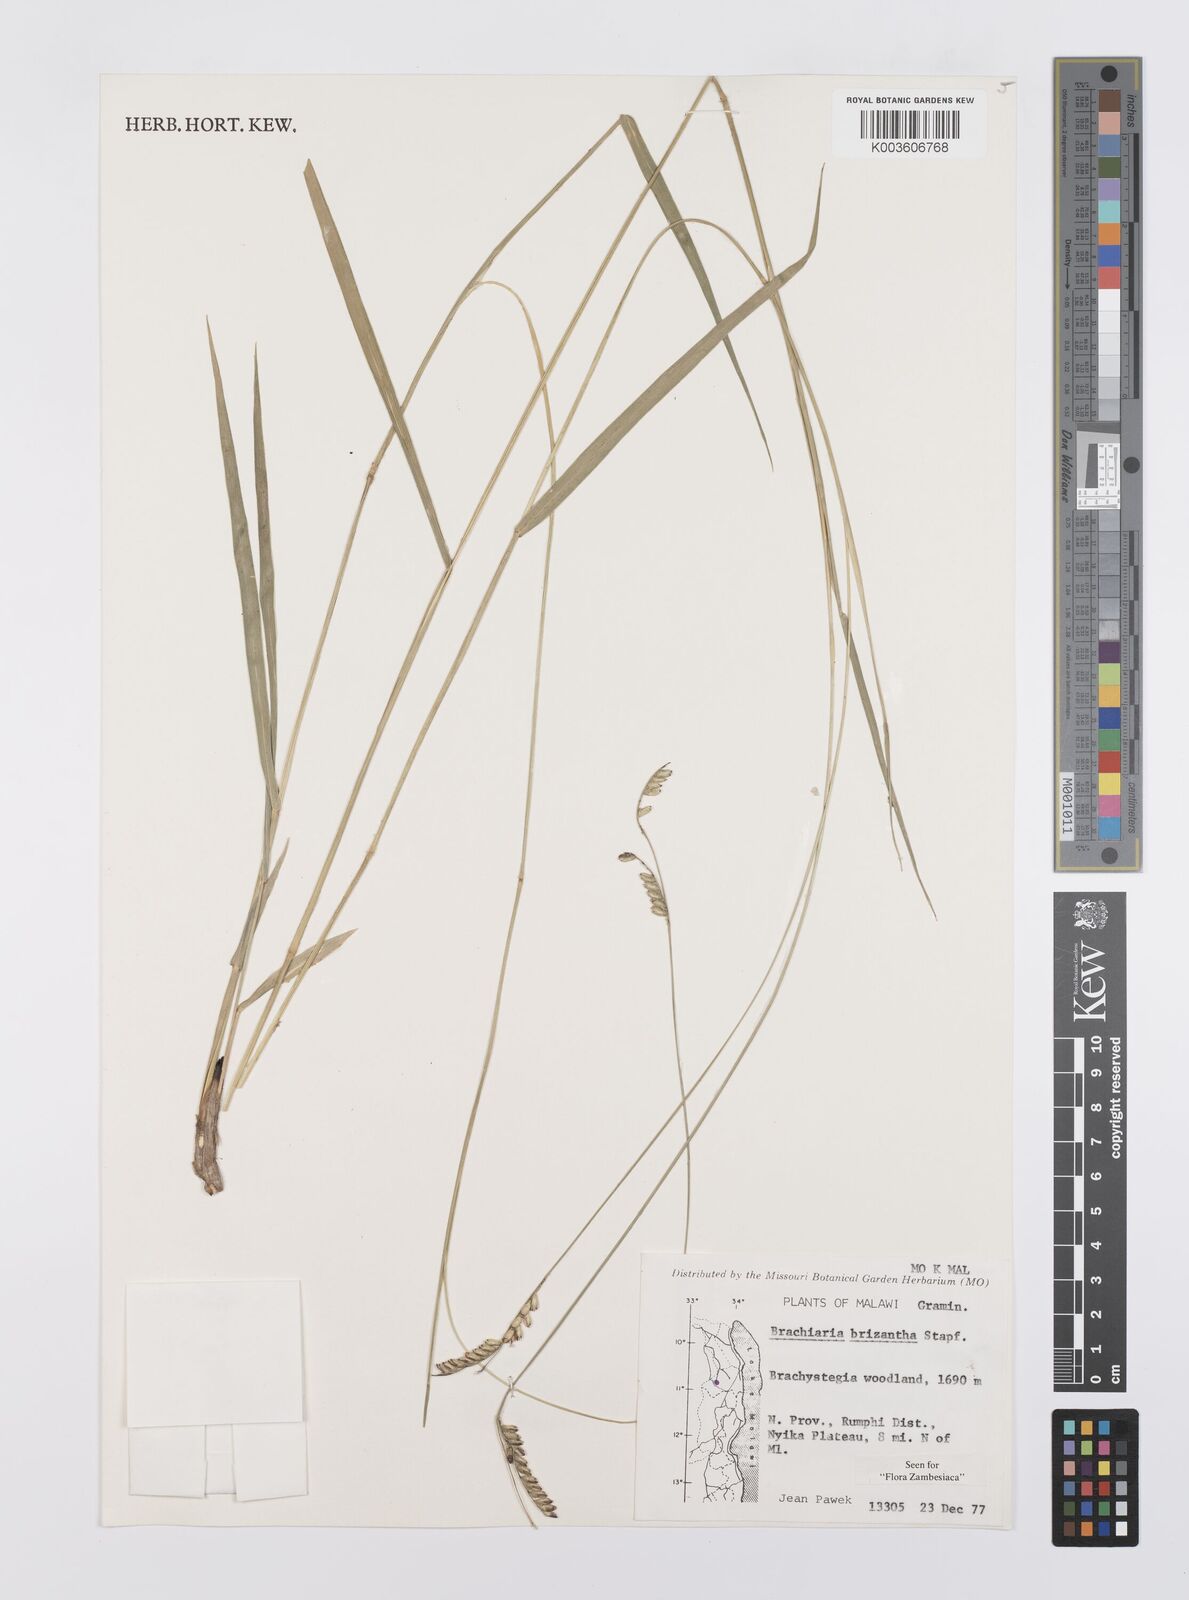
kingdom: Plantae
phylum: Tracheophyta
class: Liliopsida
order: Poales
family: Poaceae
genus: Urochloa
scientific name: Urochloa brizantha
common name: Palisade signalgrass
